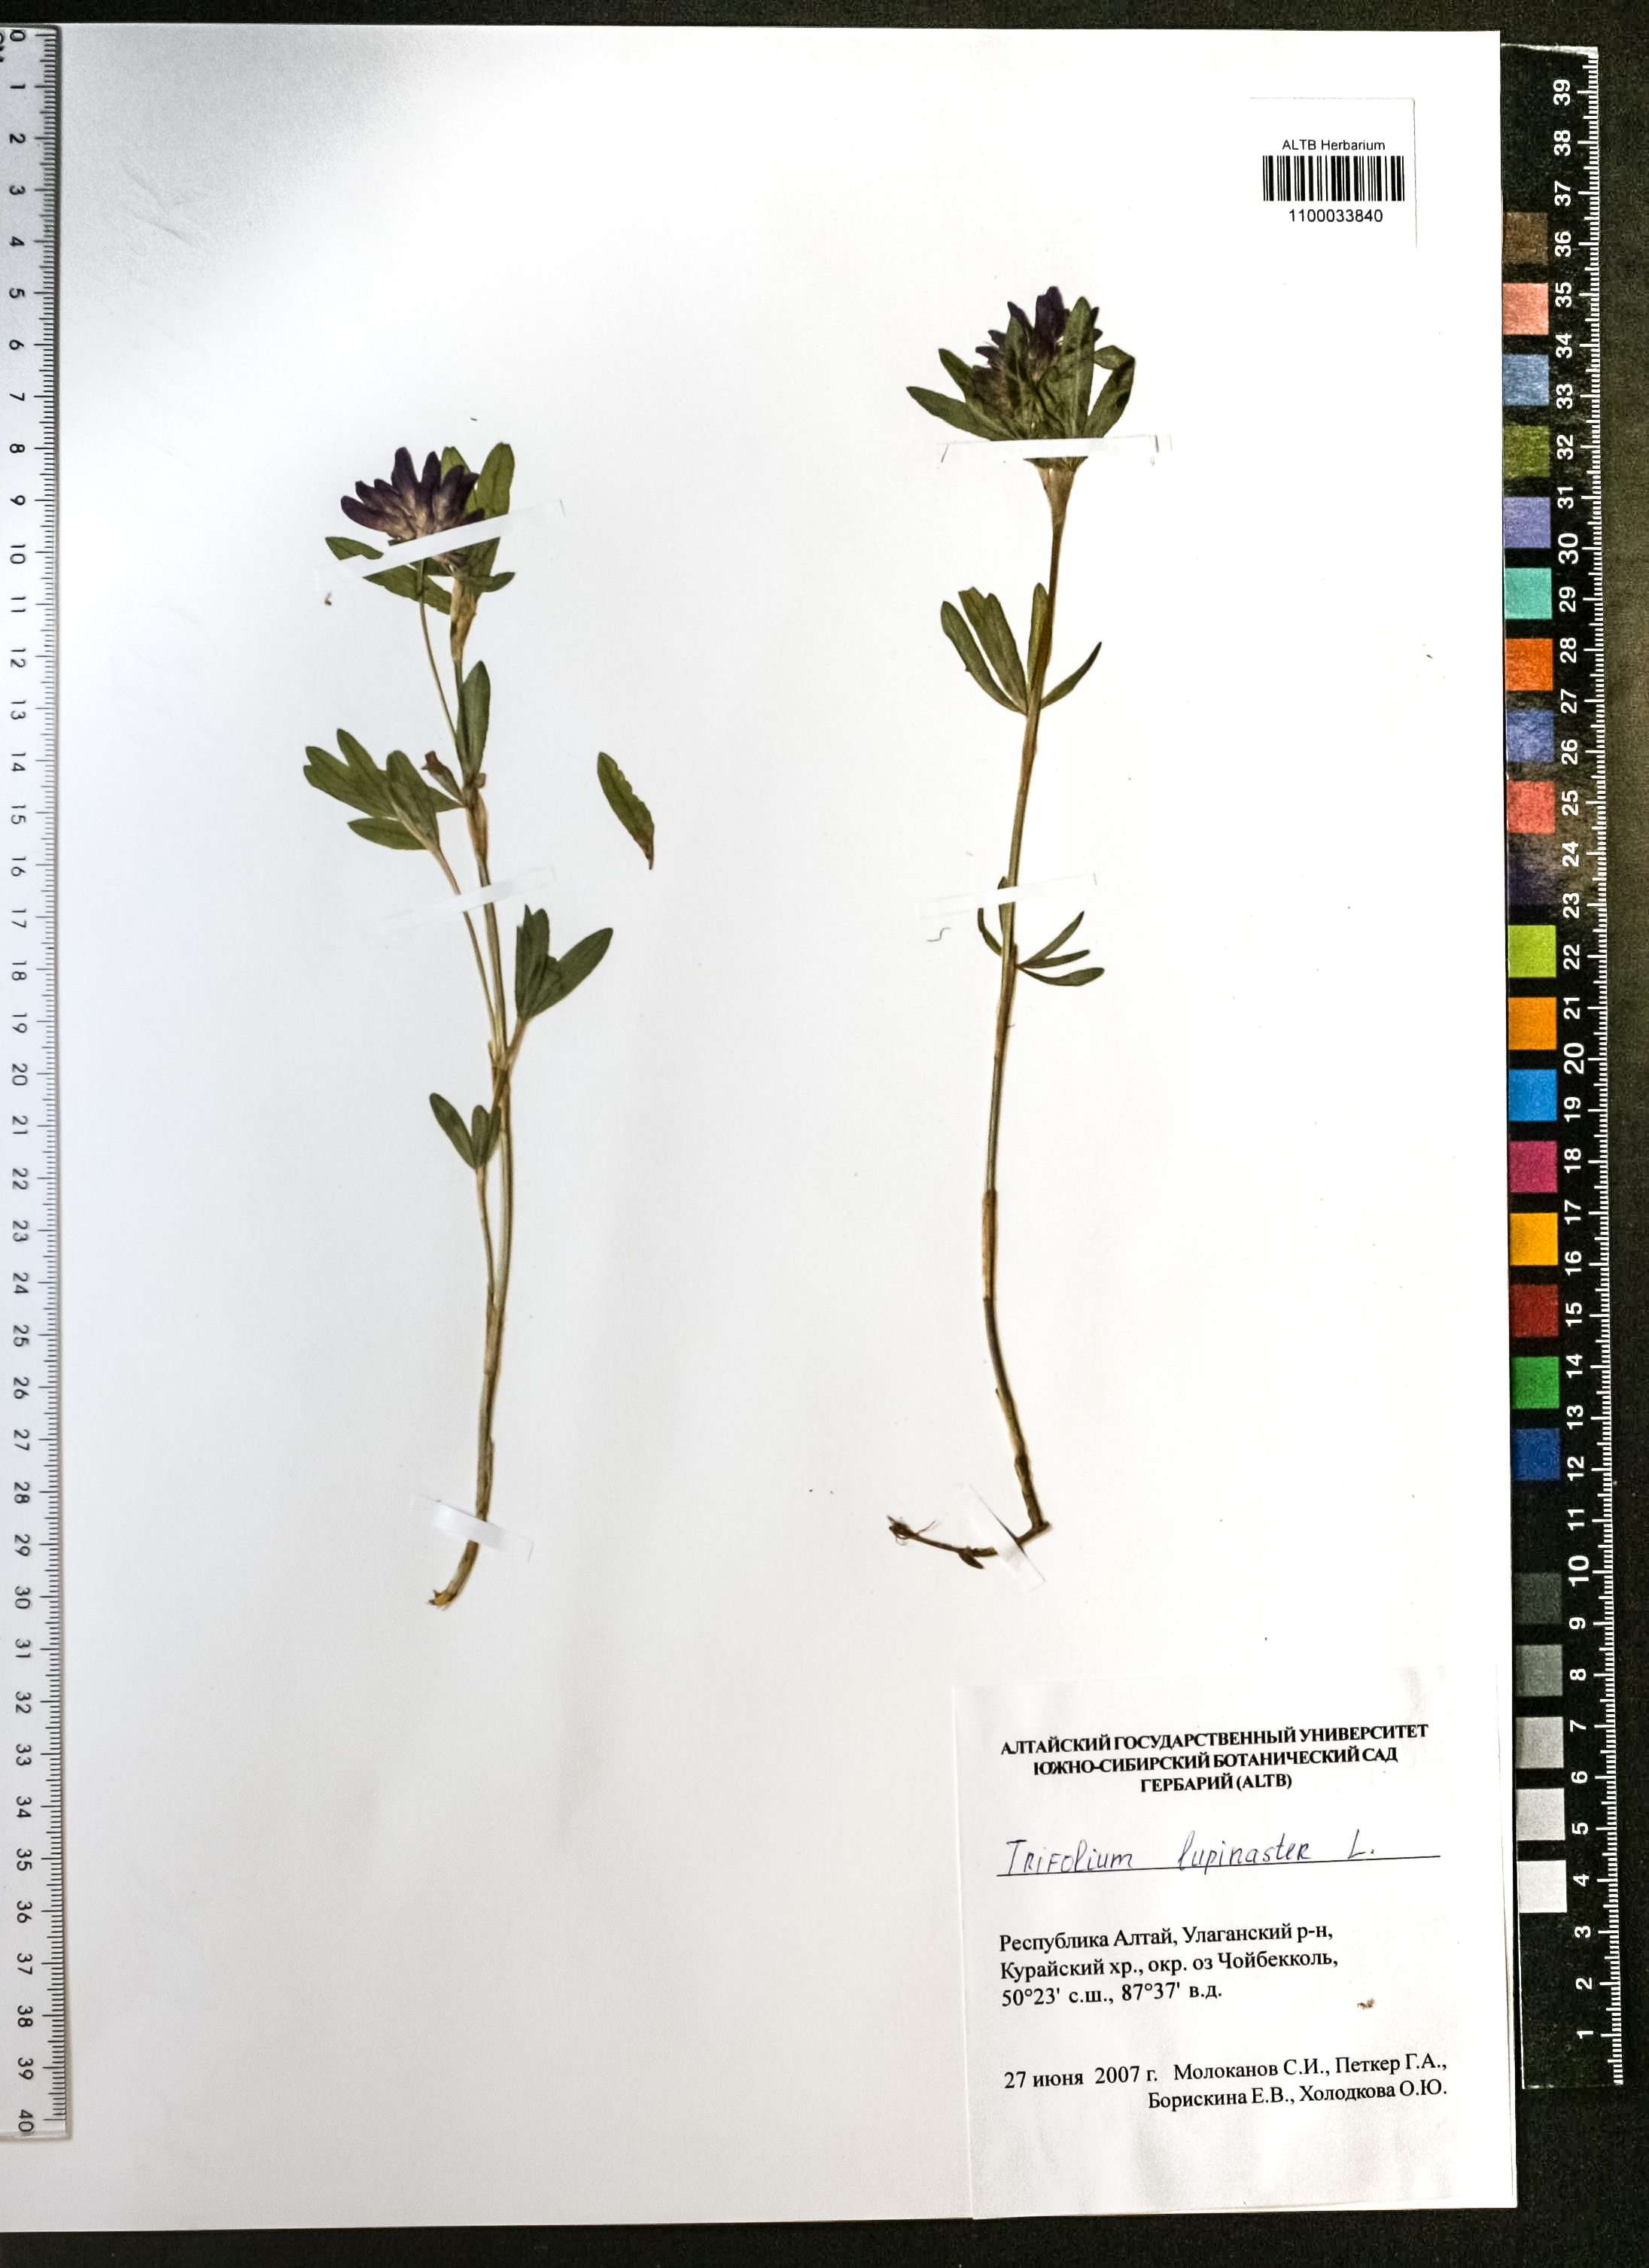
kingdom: Plantae
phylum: Tracheophyta
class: Magnoliopsida
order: Fabales
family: Fabaceae
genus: Trifolium
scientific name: Trifolium lupinaster
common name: Lupine clover
